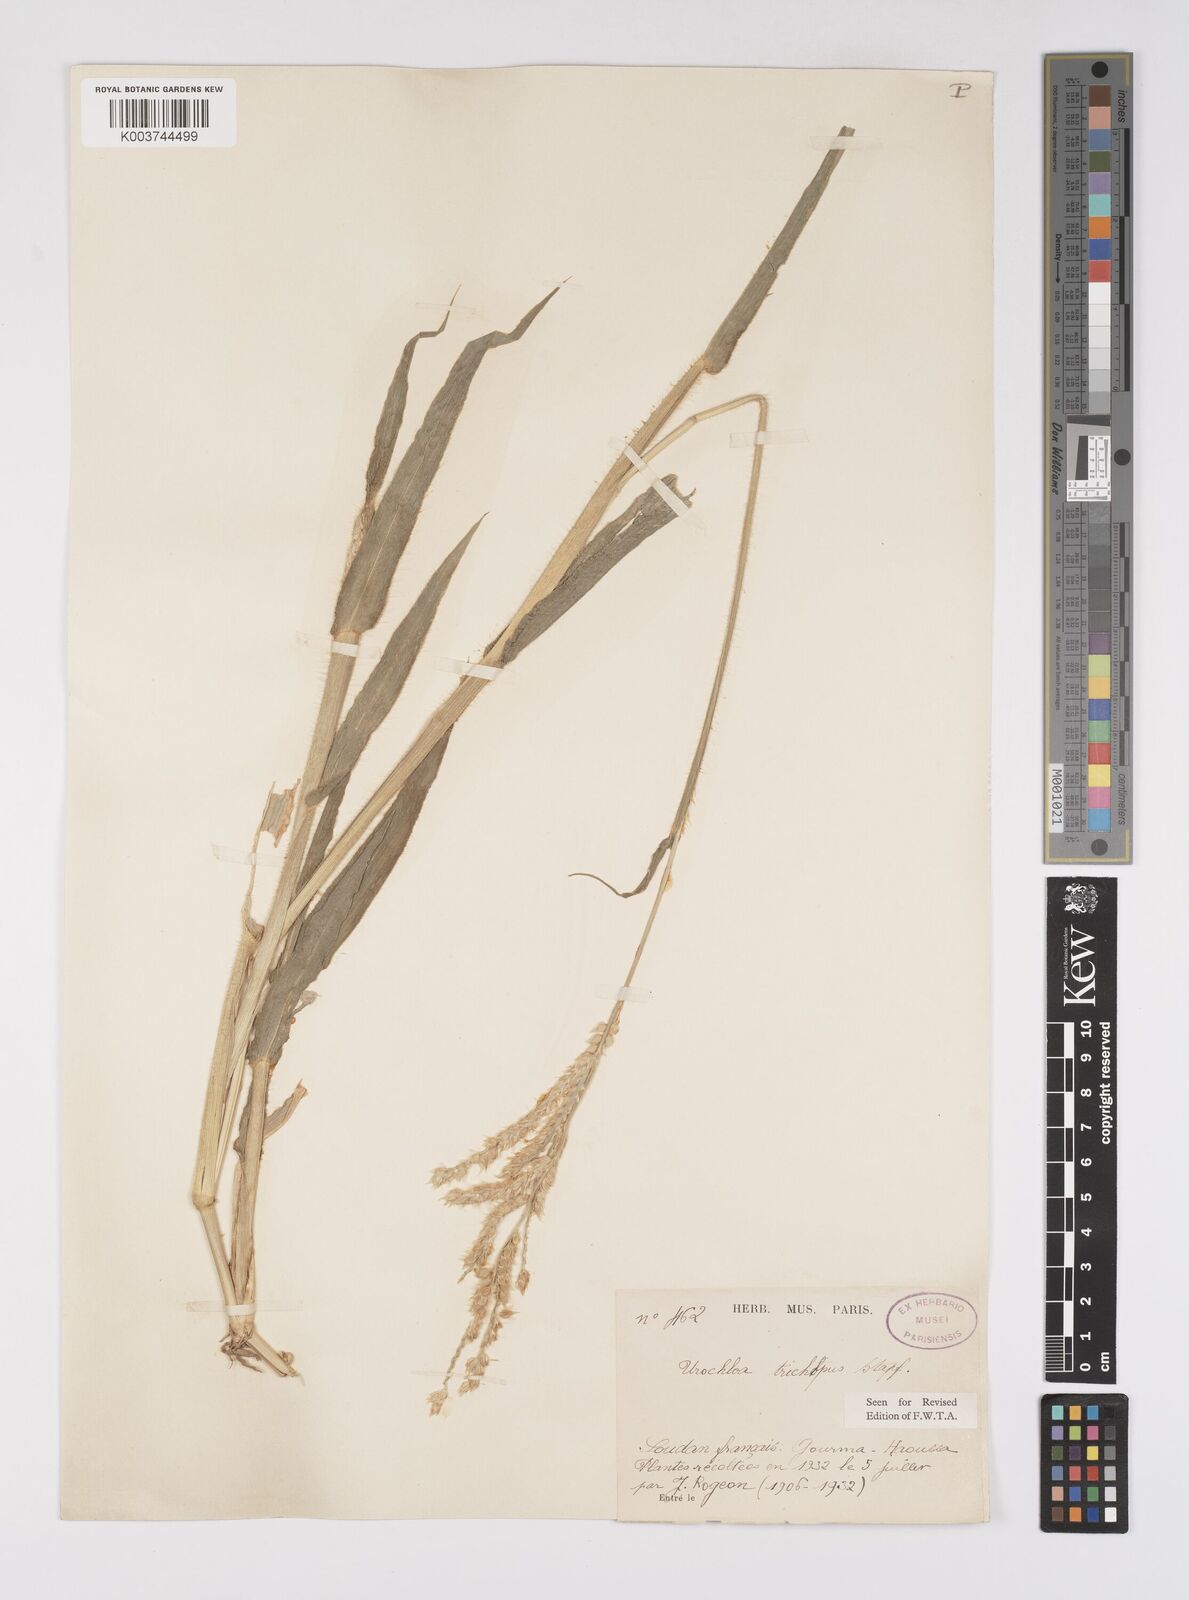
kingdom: Plantae
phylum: Tracheophyta
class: Liliopsida
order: Poales
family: Poaceae
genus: Urochloa
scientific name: Urochloa trichopus
